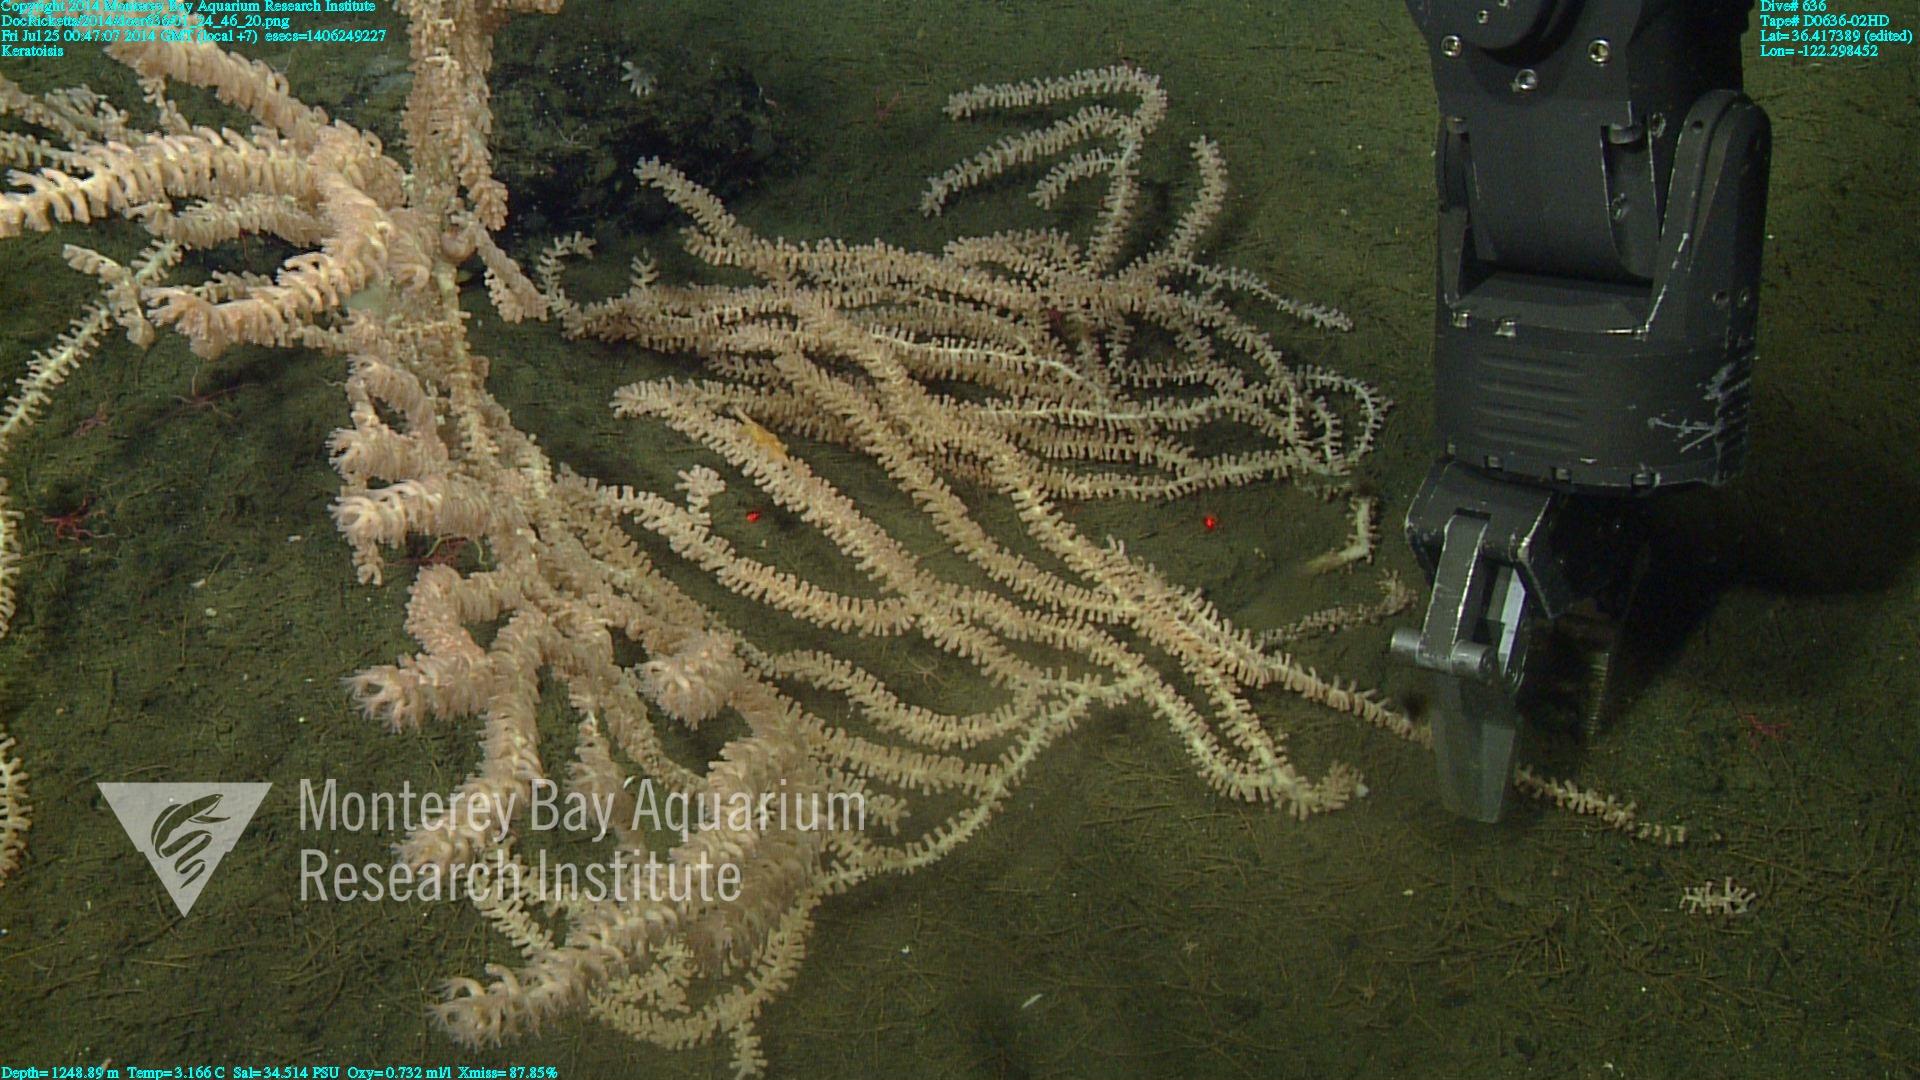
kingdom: Animalia
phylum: Cnidaria
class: Anthozoa
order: Scleralcyonacea
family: Keratoisididae
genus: Keratoisis
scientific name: Keratoisis
